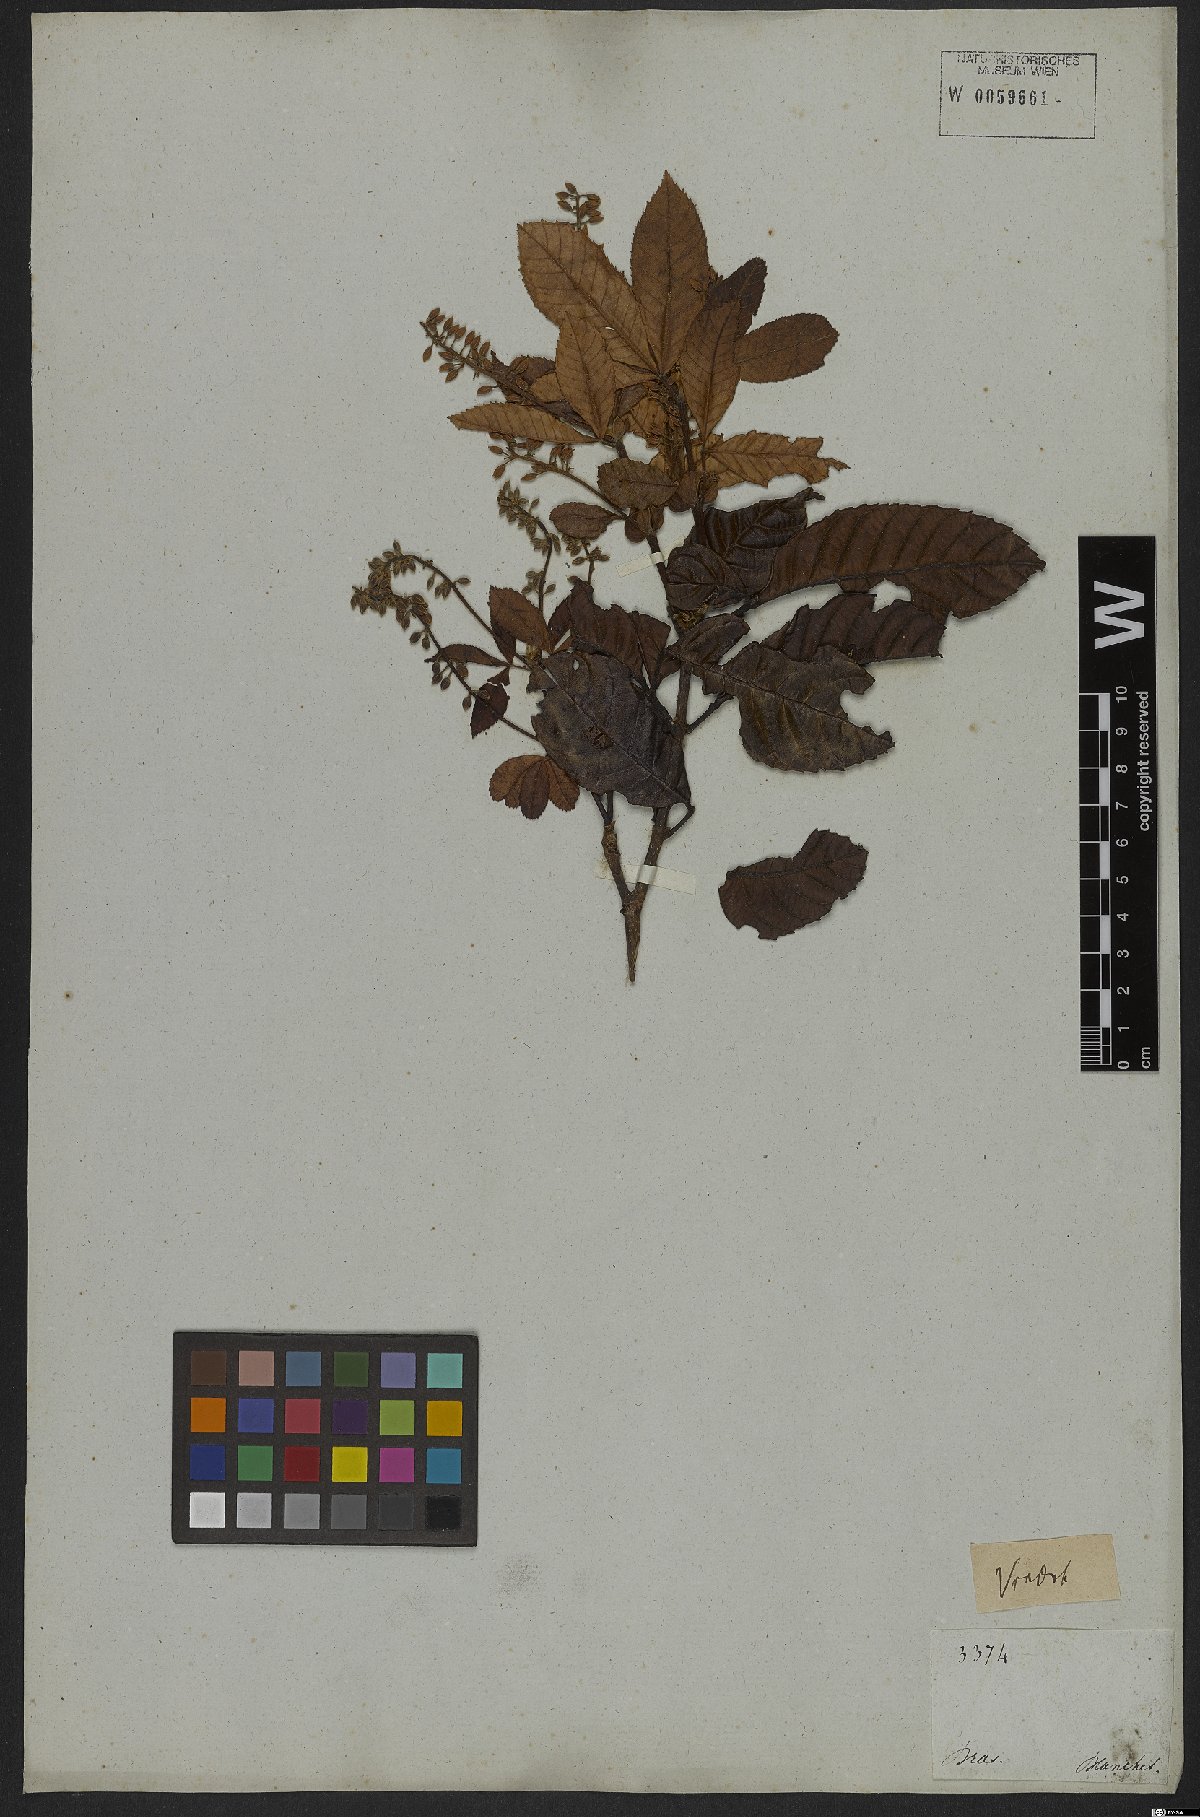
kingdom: Plantae
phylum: Tracheophyta
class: Magnoliopsida
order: Oxalidales
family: Cunoniaceae
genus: Lamanonia
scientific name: Lamanonia speciosa
